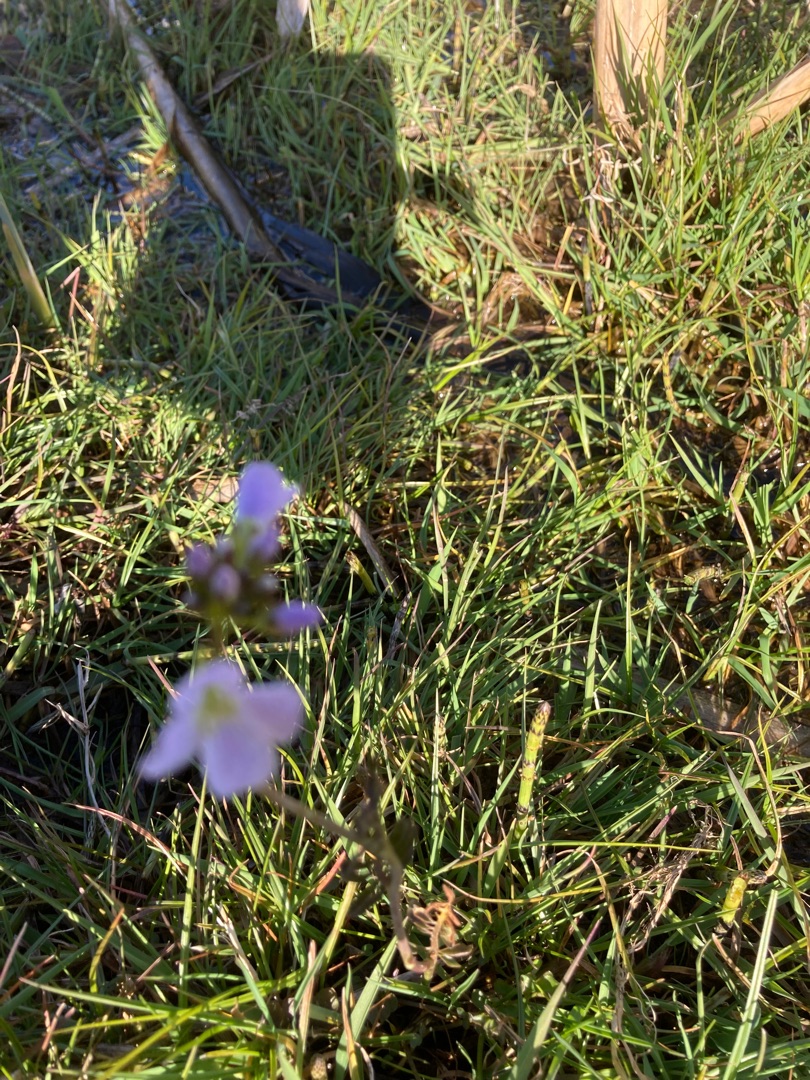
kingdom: Plantae
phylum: Tracheophyta
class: Magnoliopsida
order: Brassicales
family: Brassicaceae
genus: Cardamine
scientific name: Cardamine pratensis
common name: Engkarse
